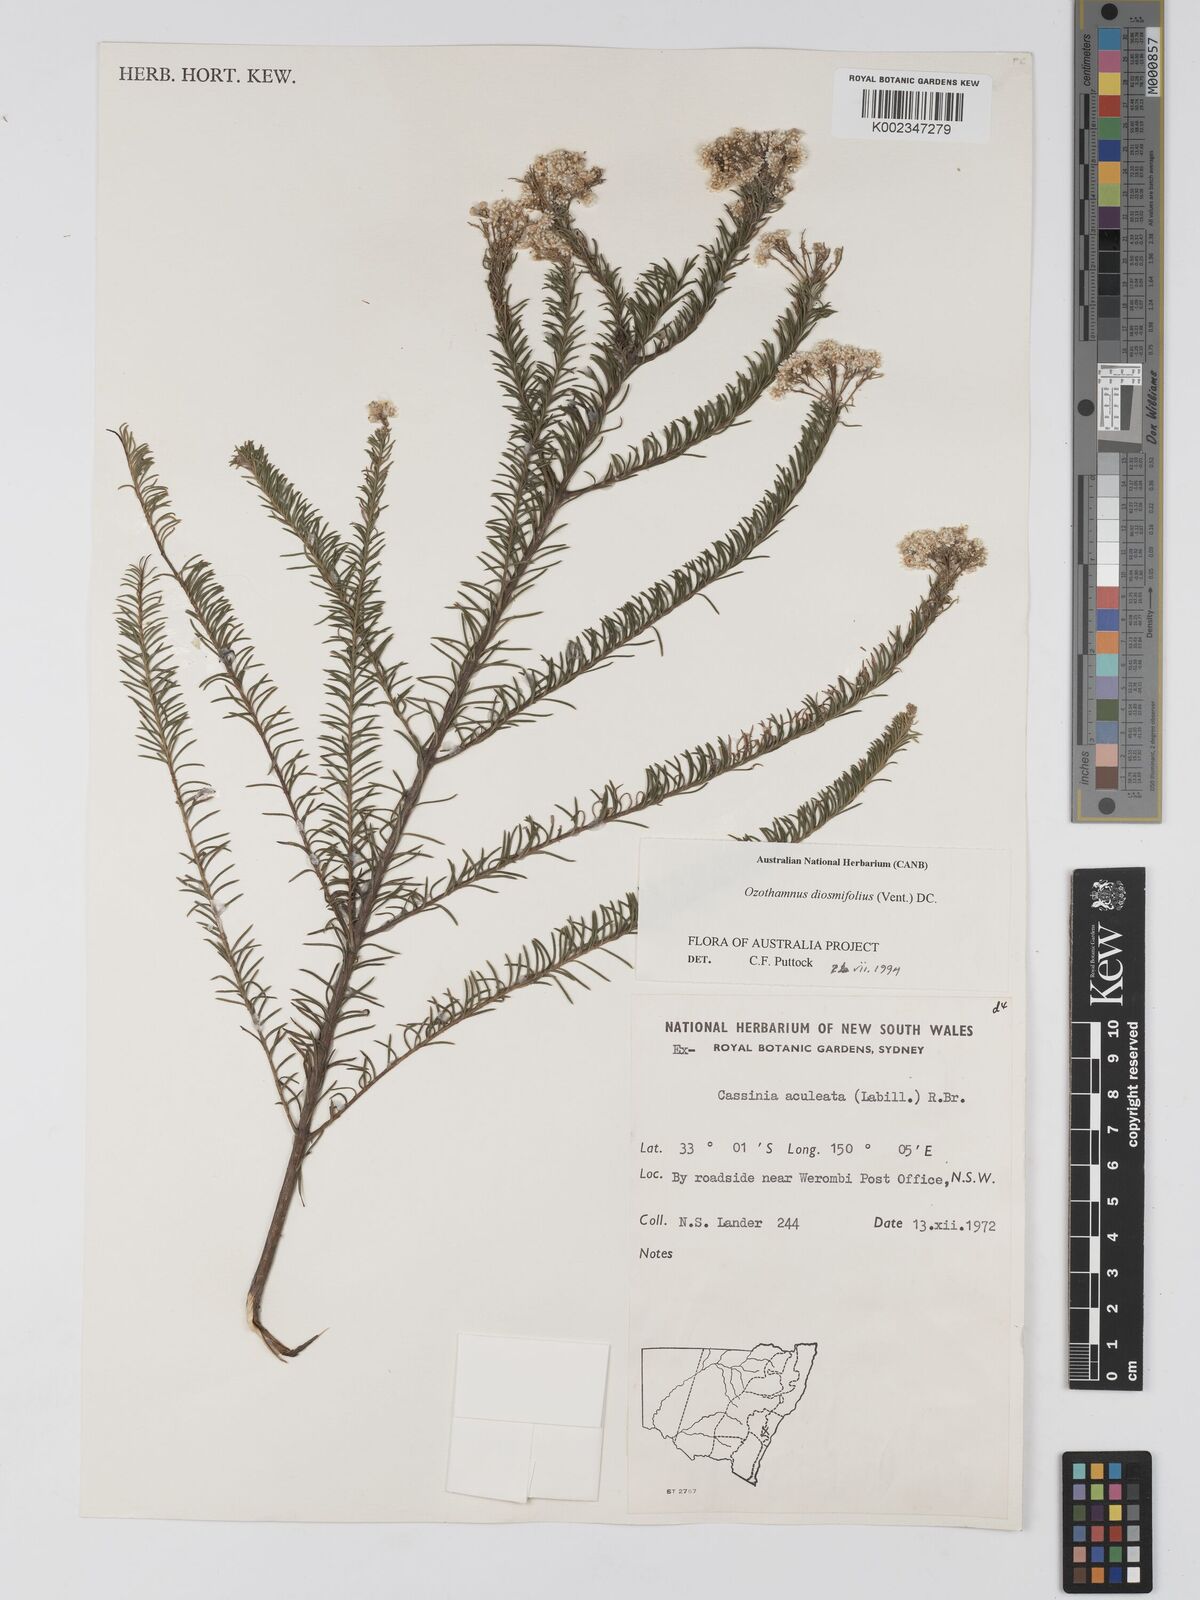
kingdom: Plantae
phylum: Tracheophyta
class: Magnoliopsida
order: Asterales
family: Asteraceae
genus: Ozothamnus
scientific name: Ozothamnus diosmifolius
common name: White-dogwood
